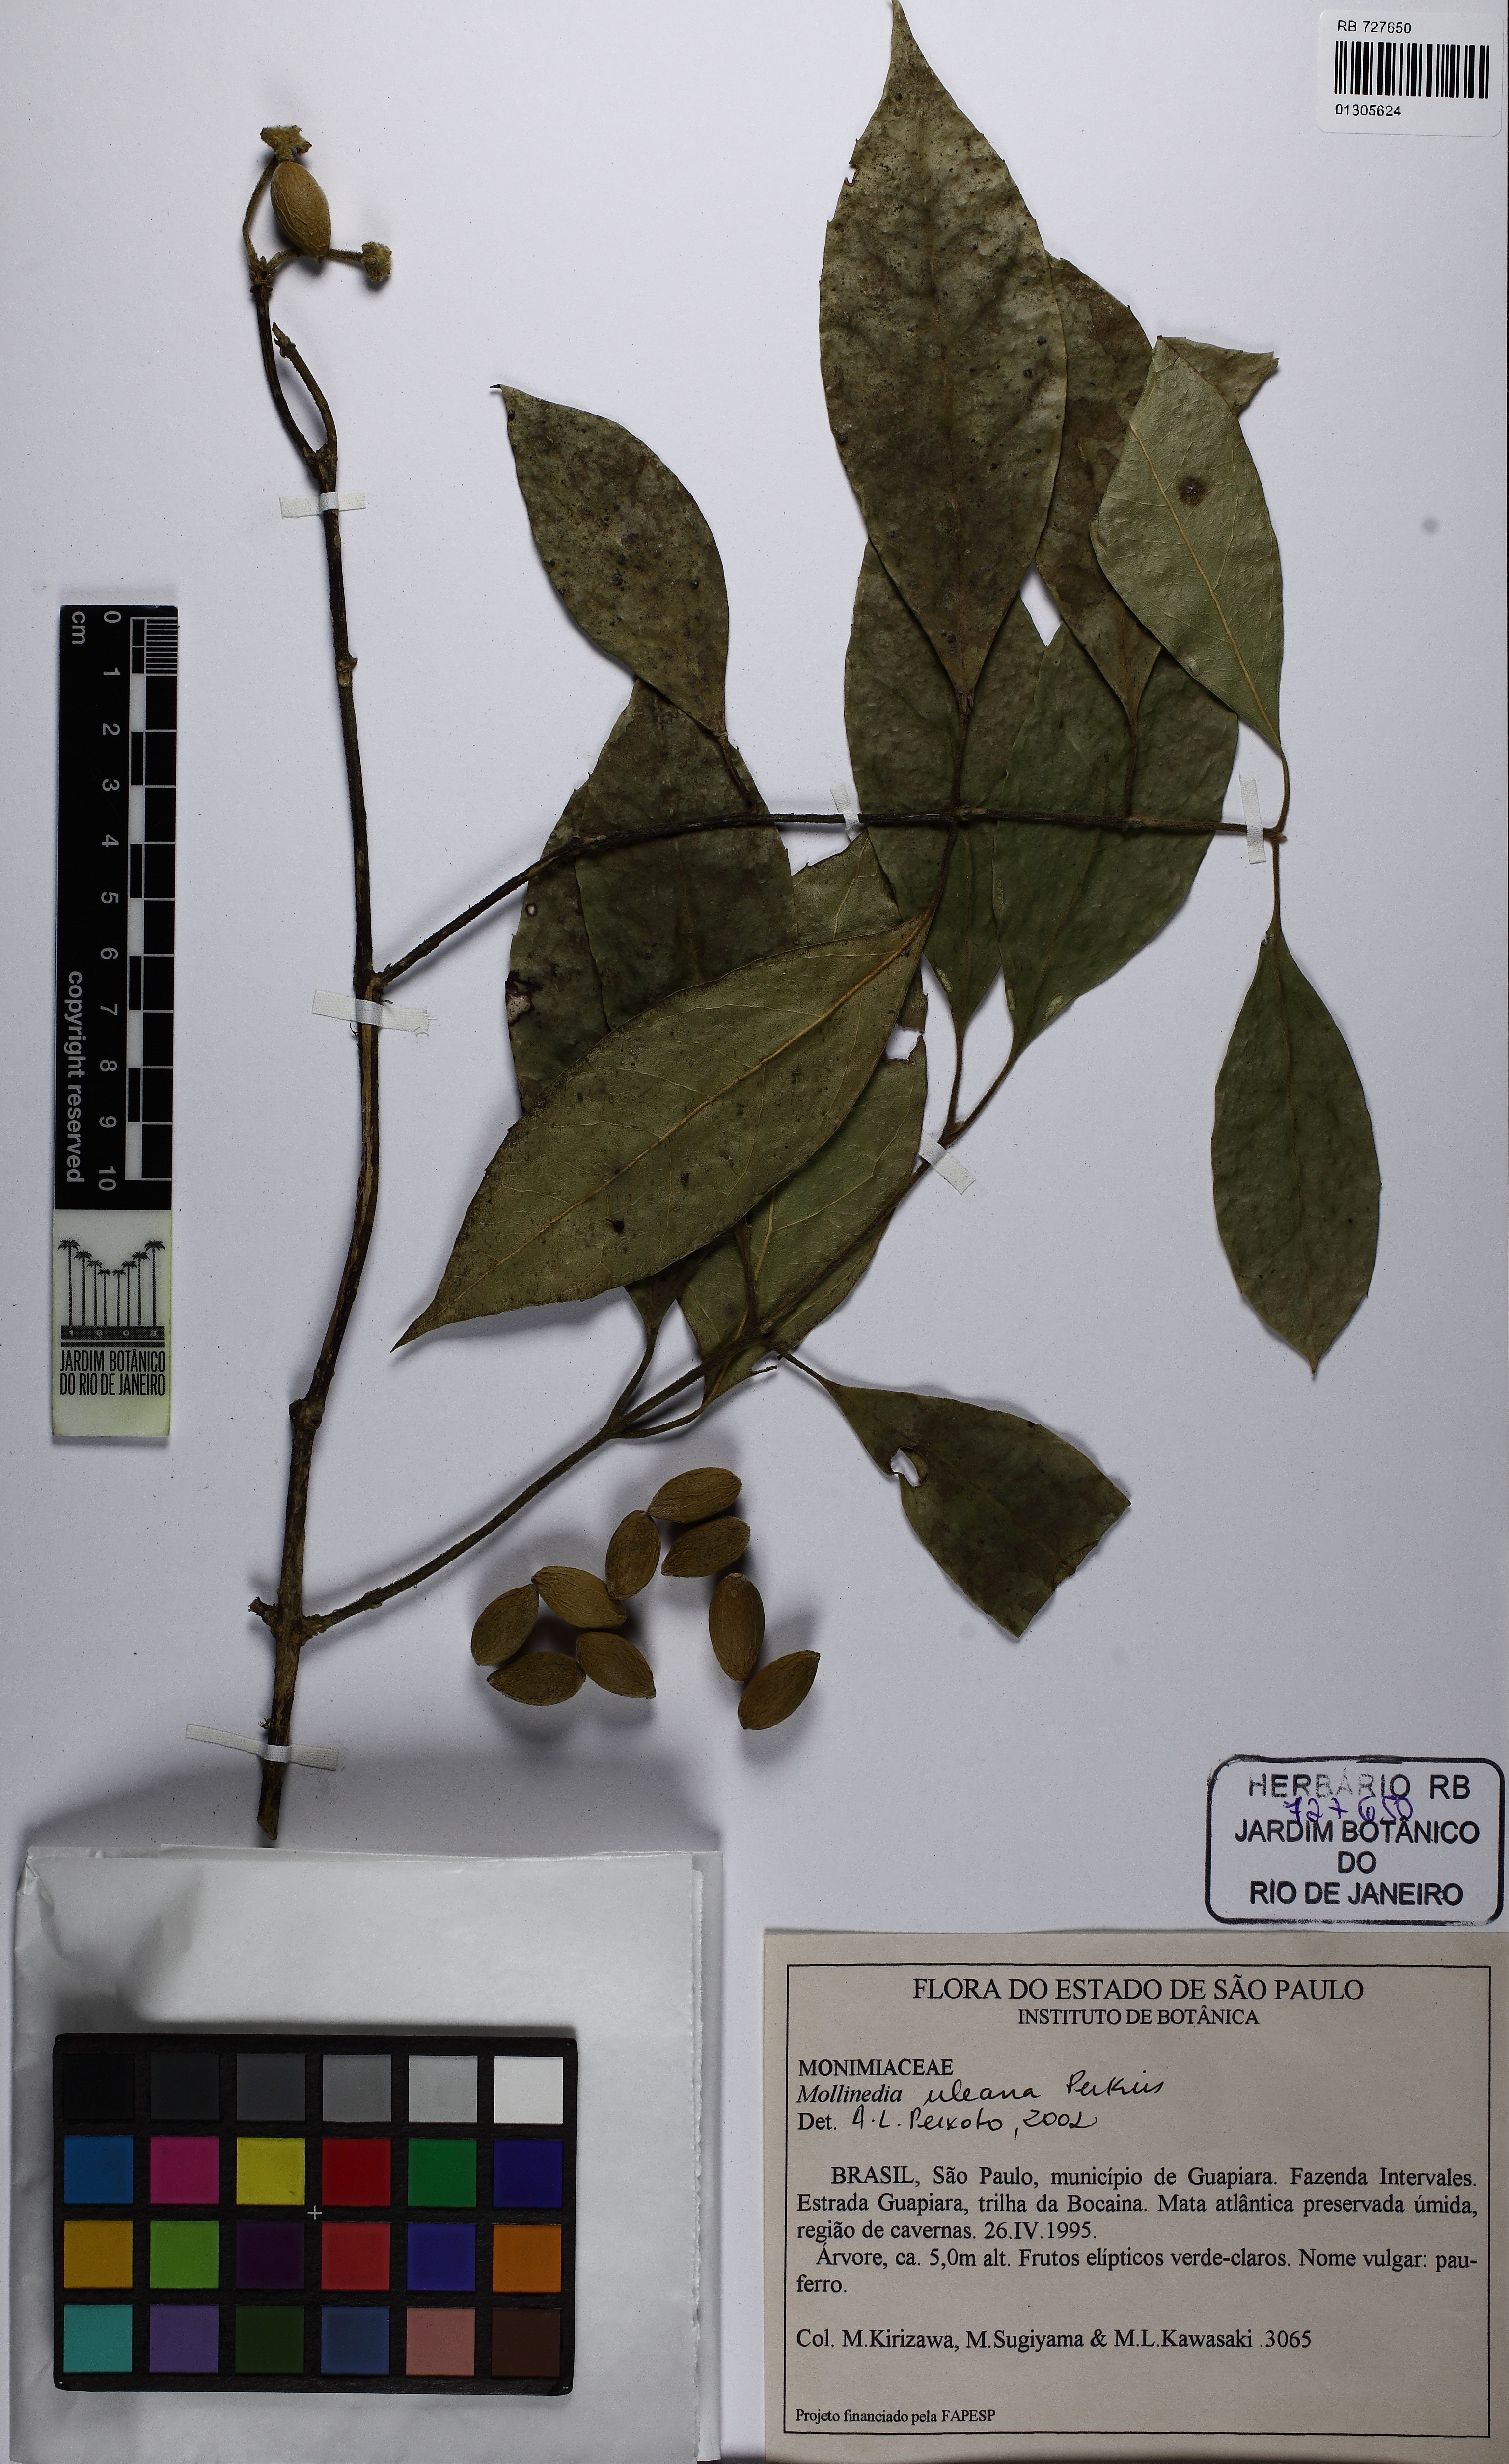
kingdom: Plantae
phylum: Tracheophyta
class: Magnoliopsida
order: Laurales
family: Monimiaceae
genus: Mollinedia
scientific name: Mollinedia uleana
